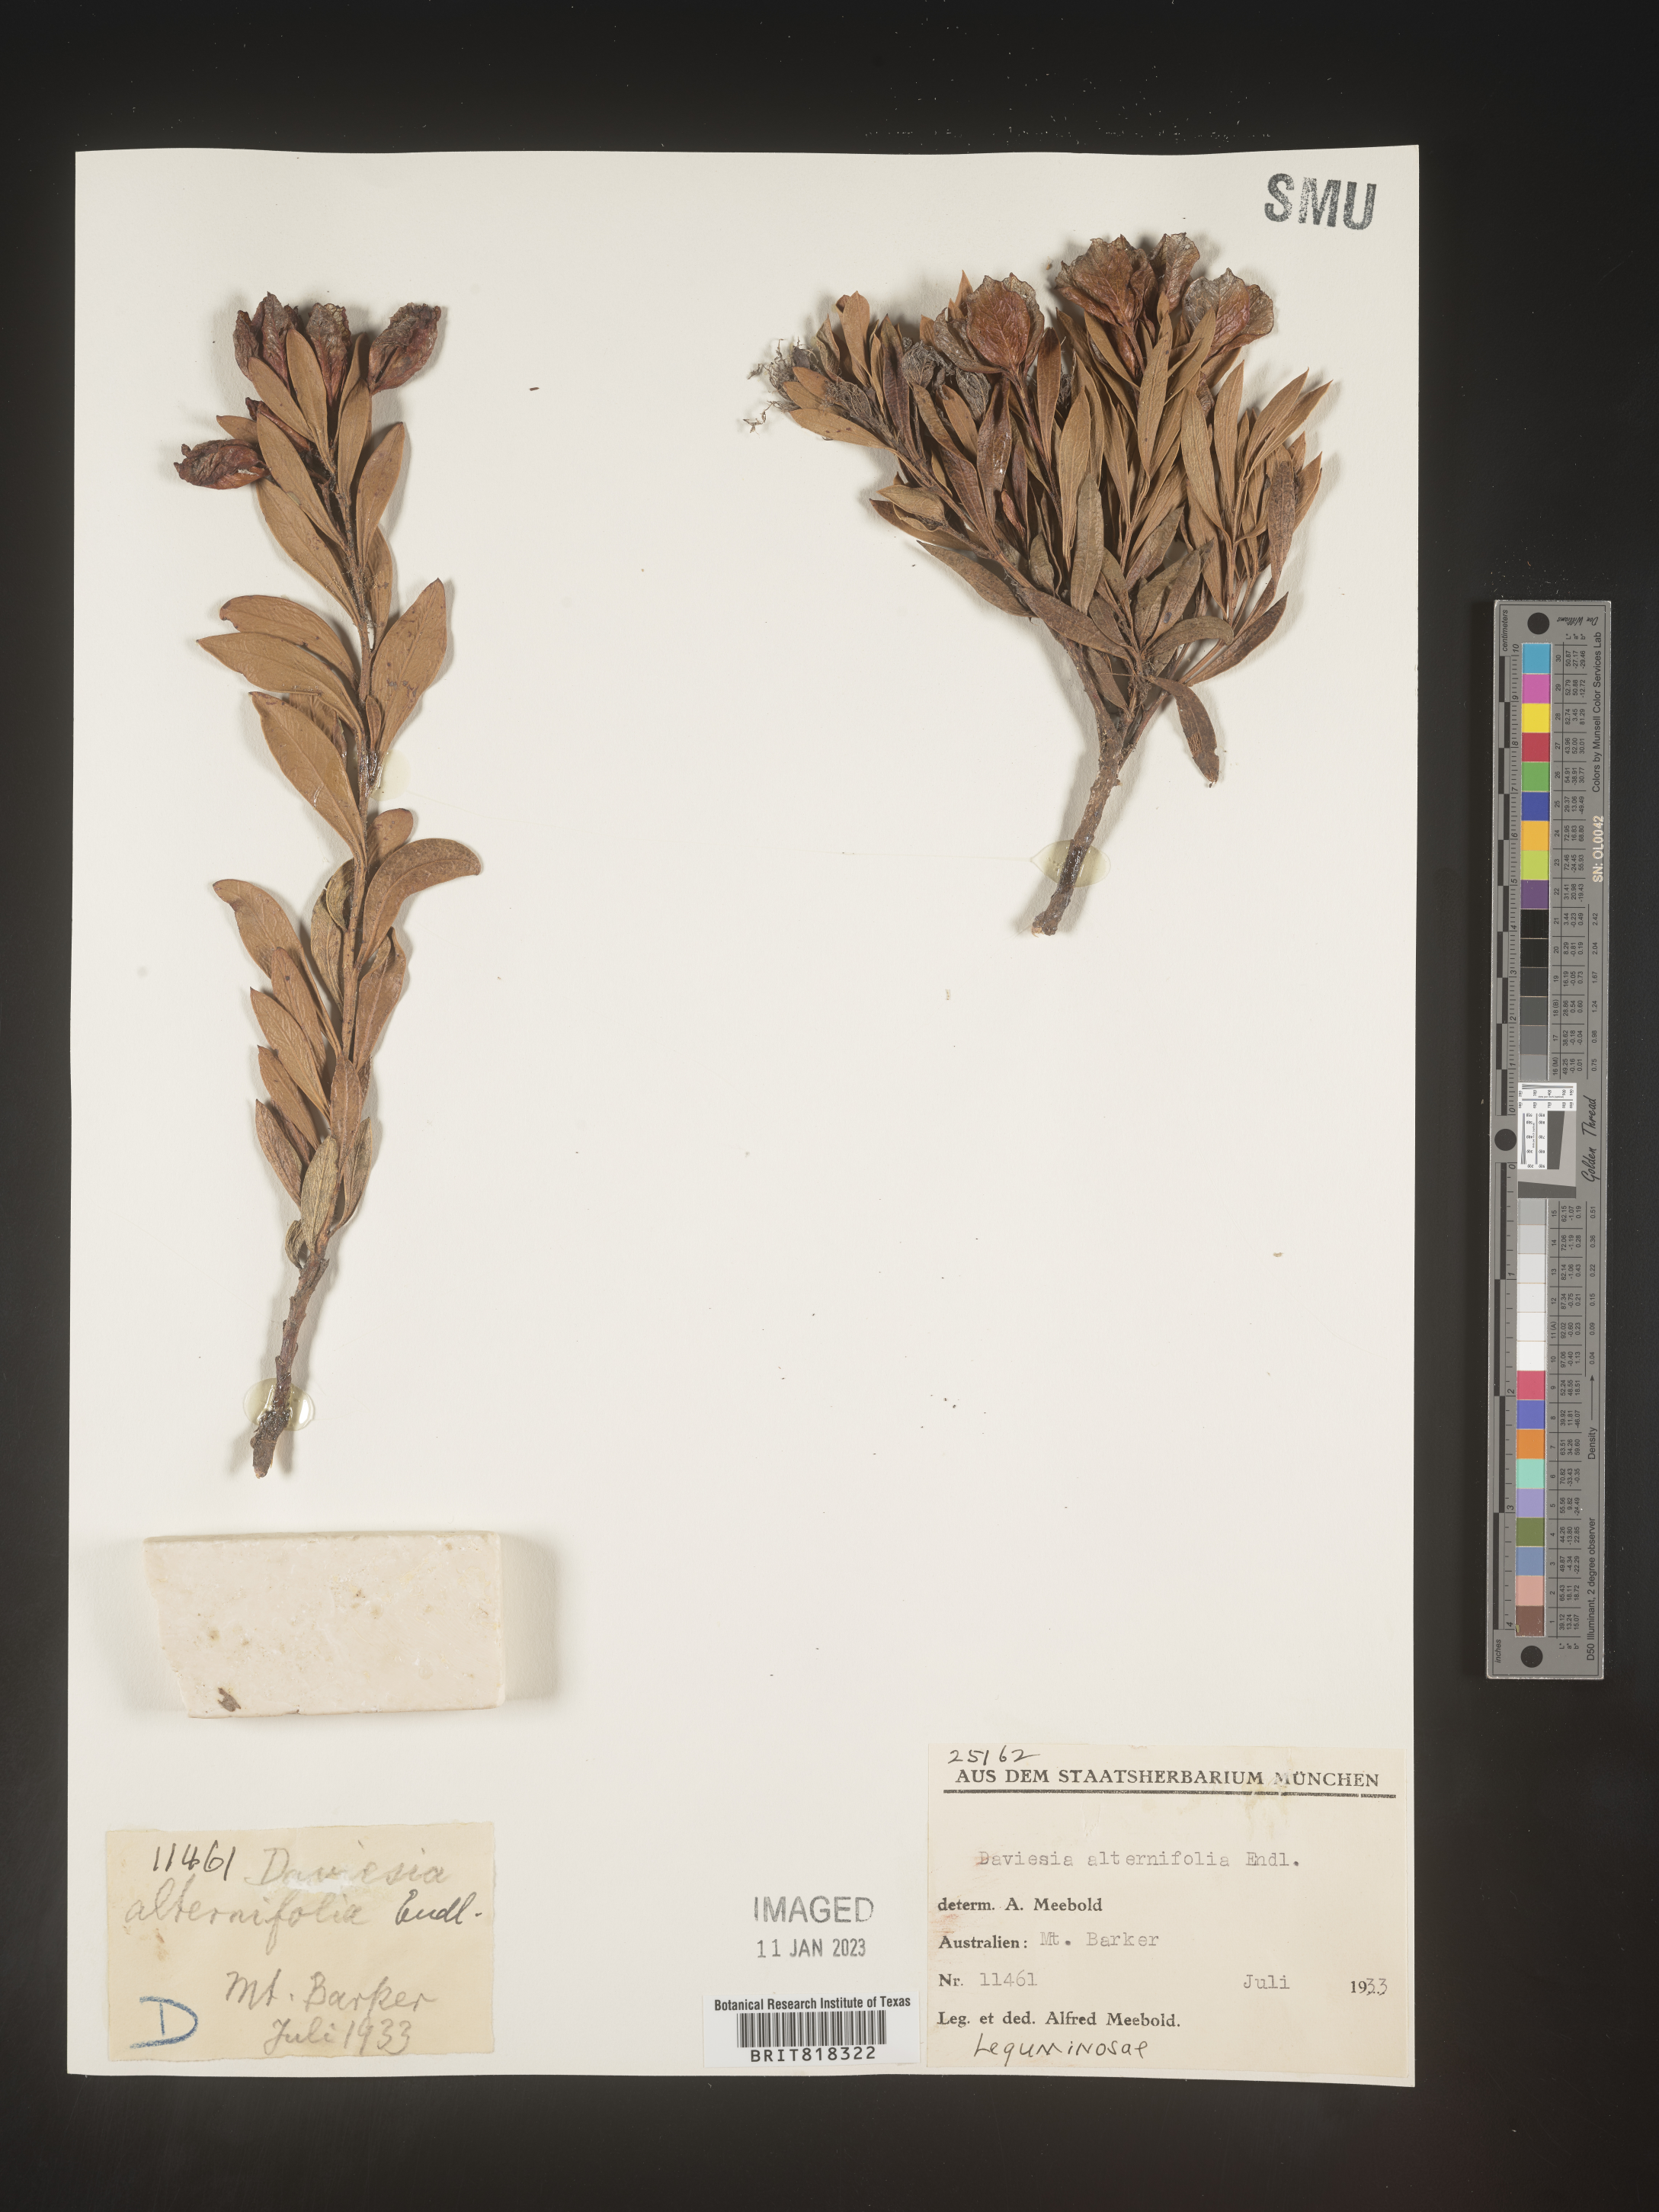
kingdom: Plantae
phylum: Tracheophyta
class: Magnoliopsida
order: Fabales
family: Fabaceae
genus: Daviesia
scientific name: Daviesia
